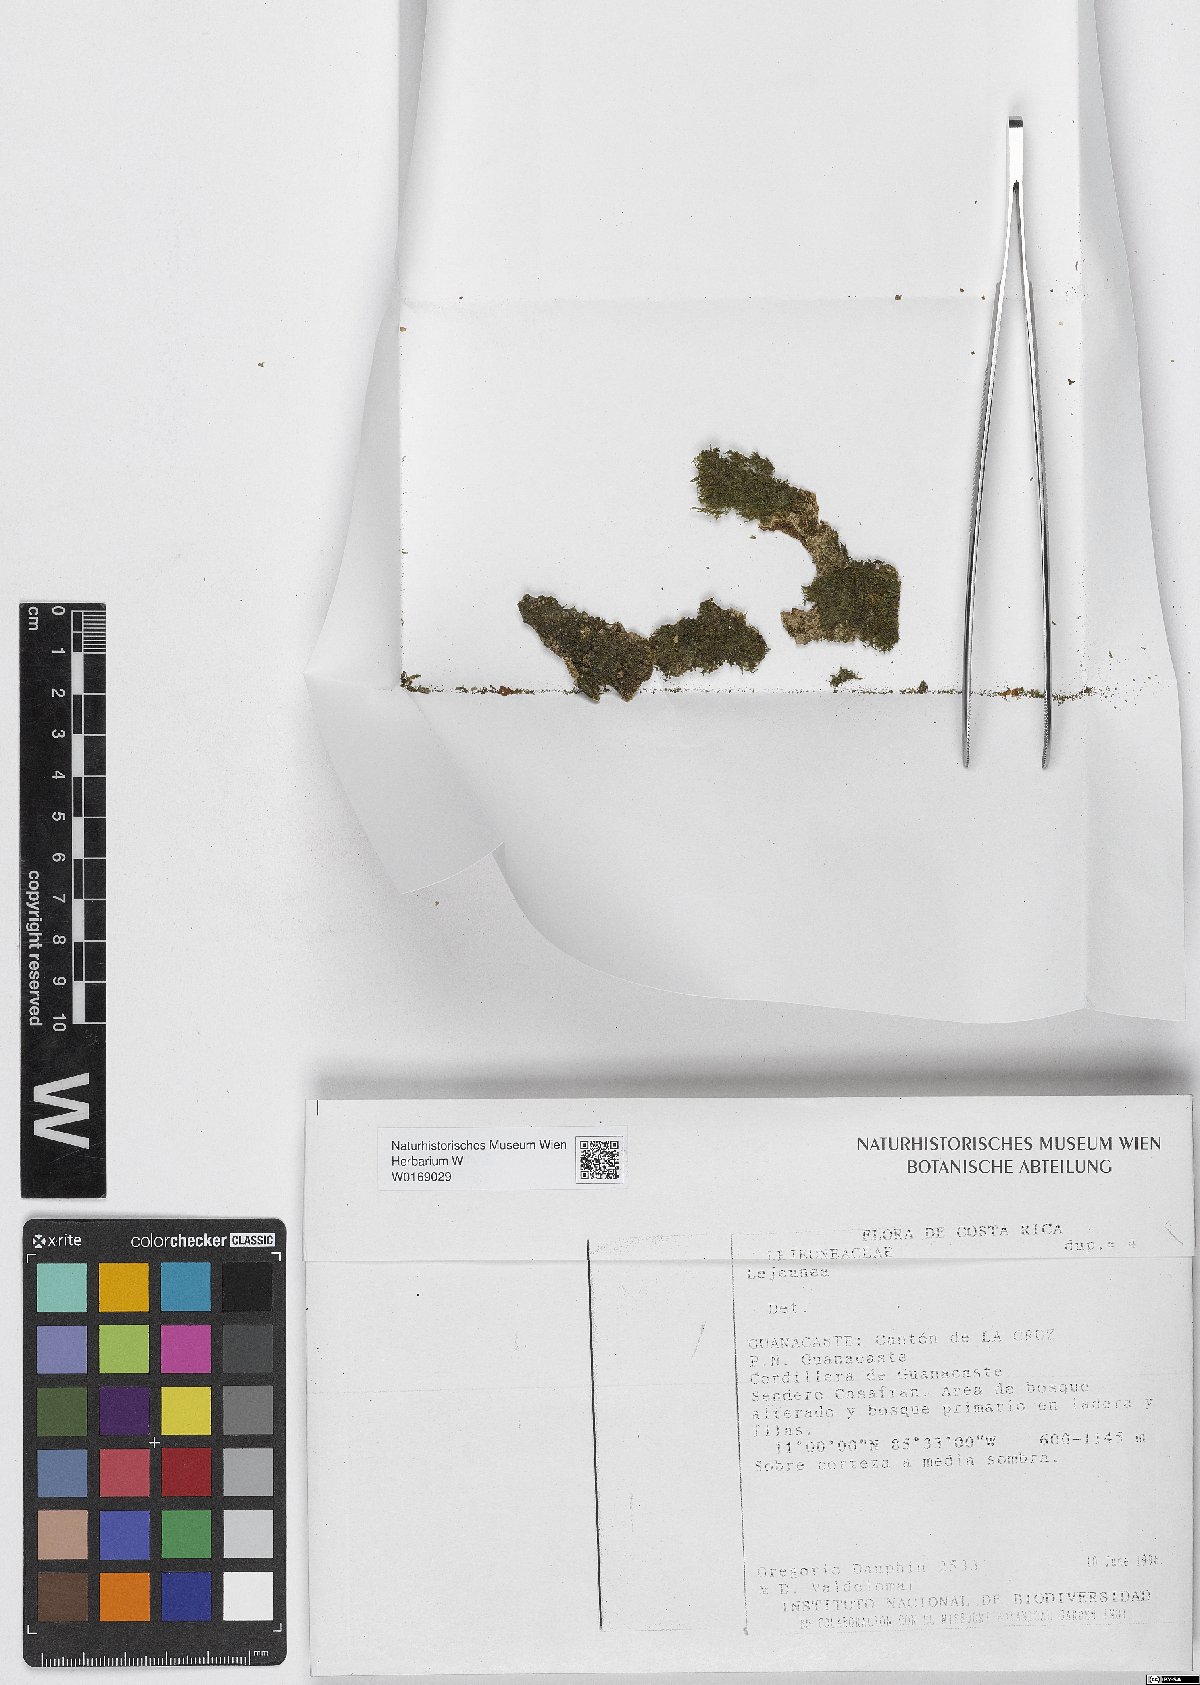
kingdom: Plantae
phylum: Marchantiophyta
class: Jungermanniopsida
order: Porellales
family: Lejeuneaceae
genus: Lejeunea
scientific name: Lejeunea
